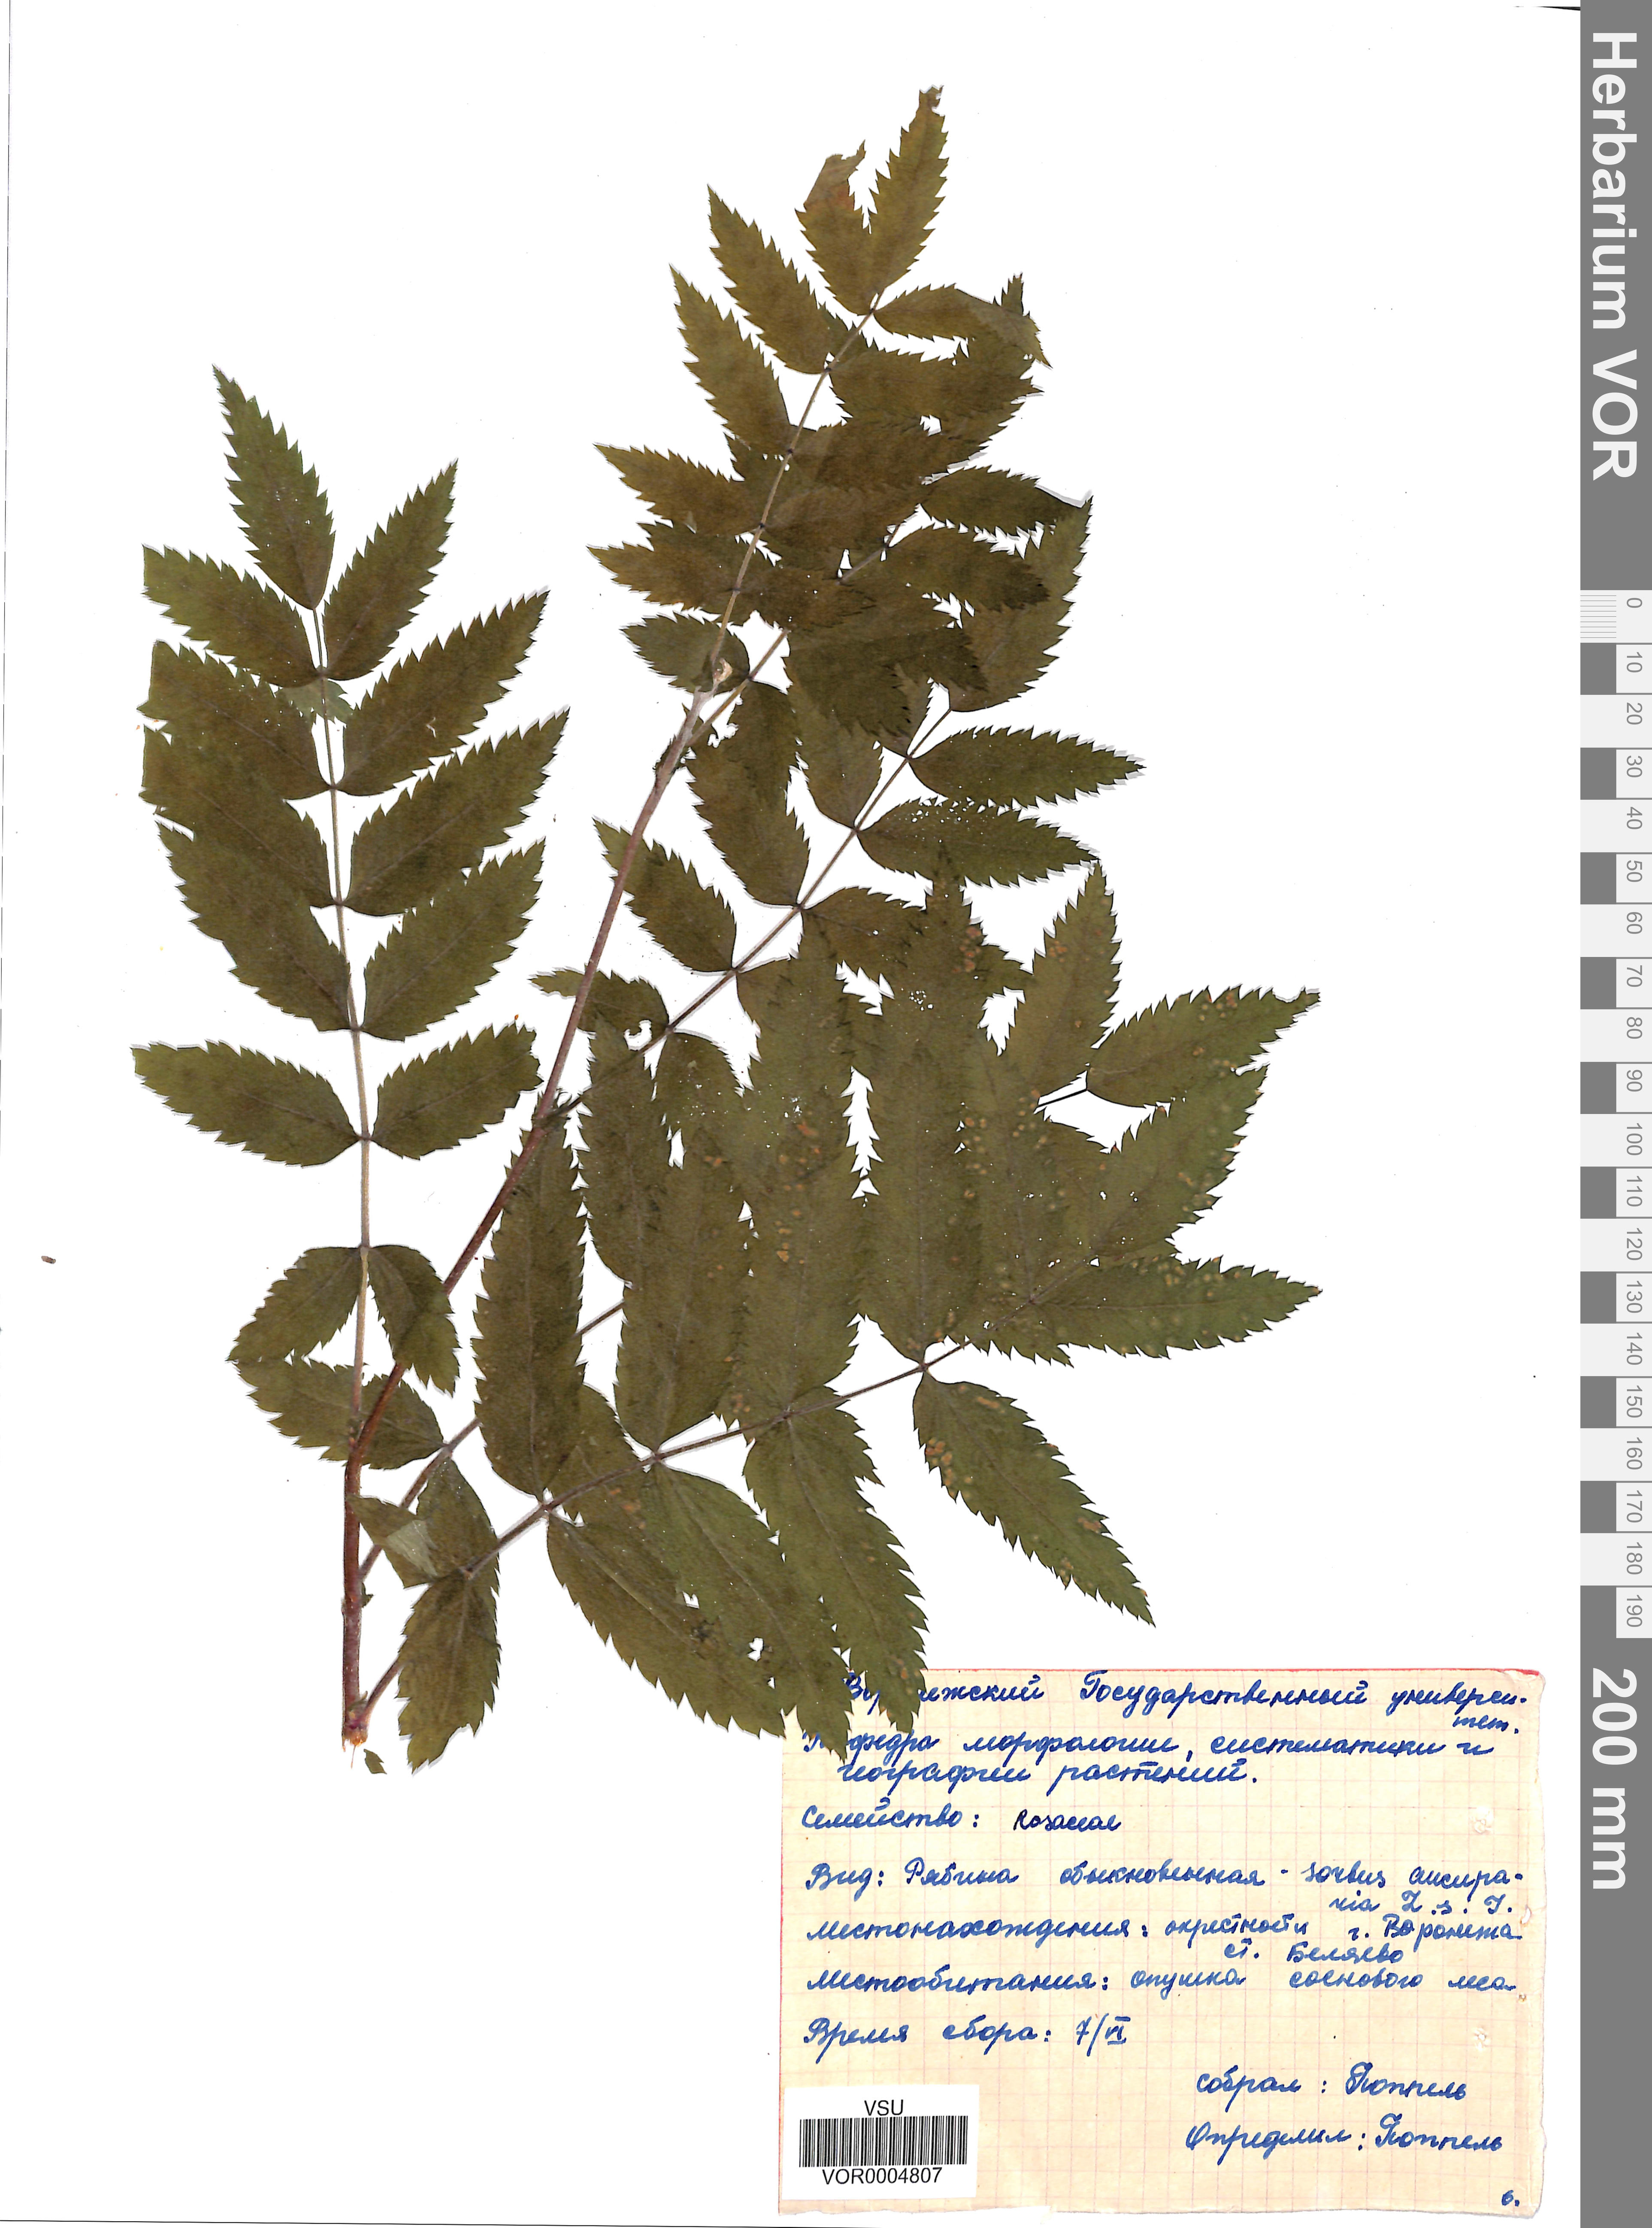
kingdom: Plantae
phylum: Tracheophyta
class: Magnoliopsida
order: Rosales
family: Rosaceae
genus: Sorbus
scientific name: Sorbus aucuparia
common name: Rowan
